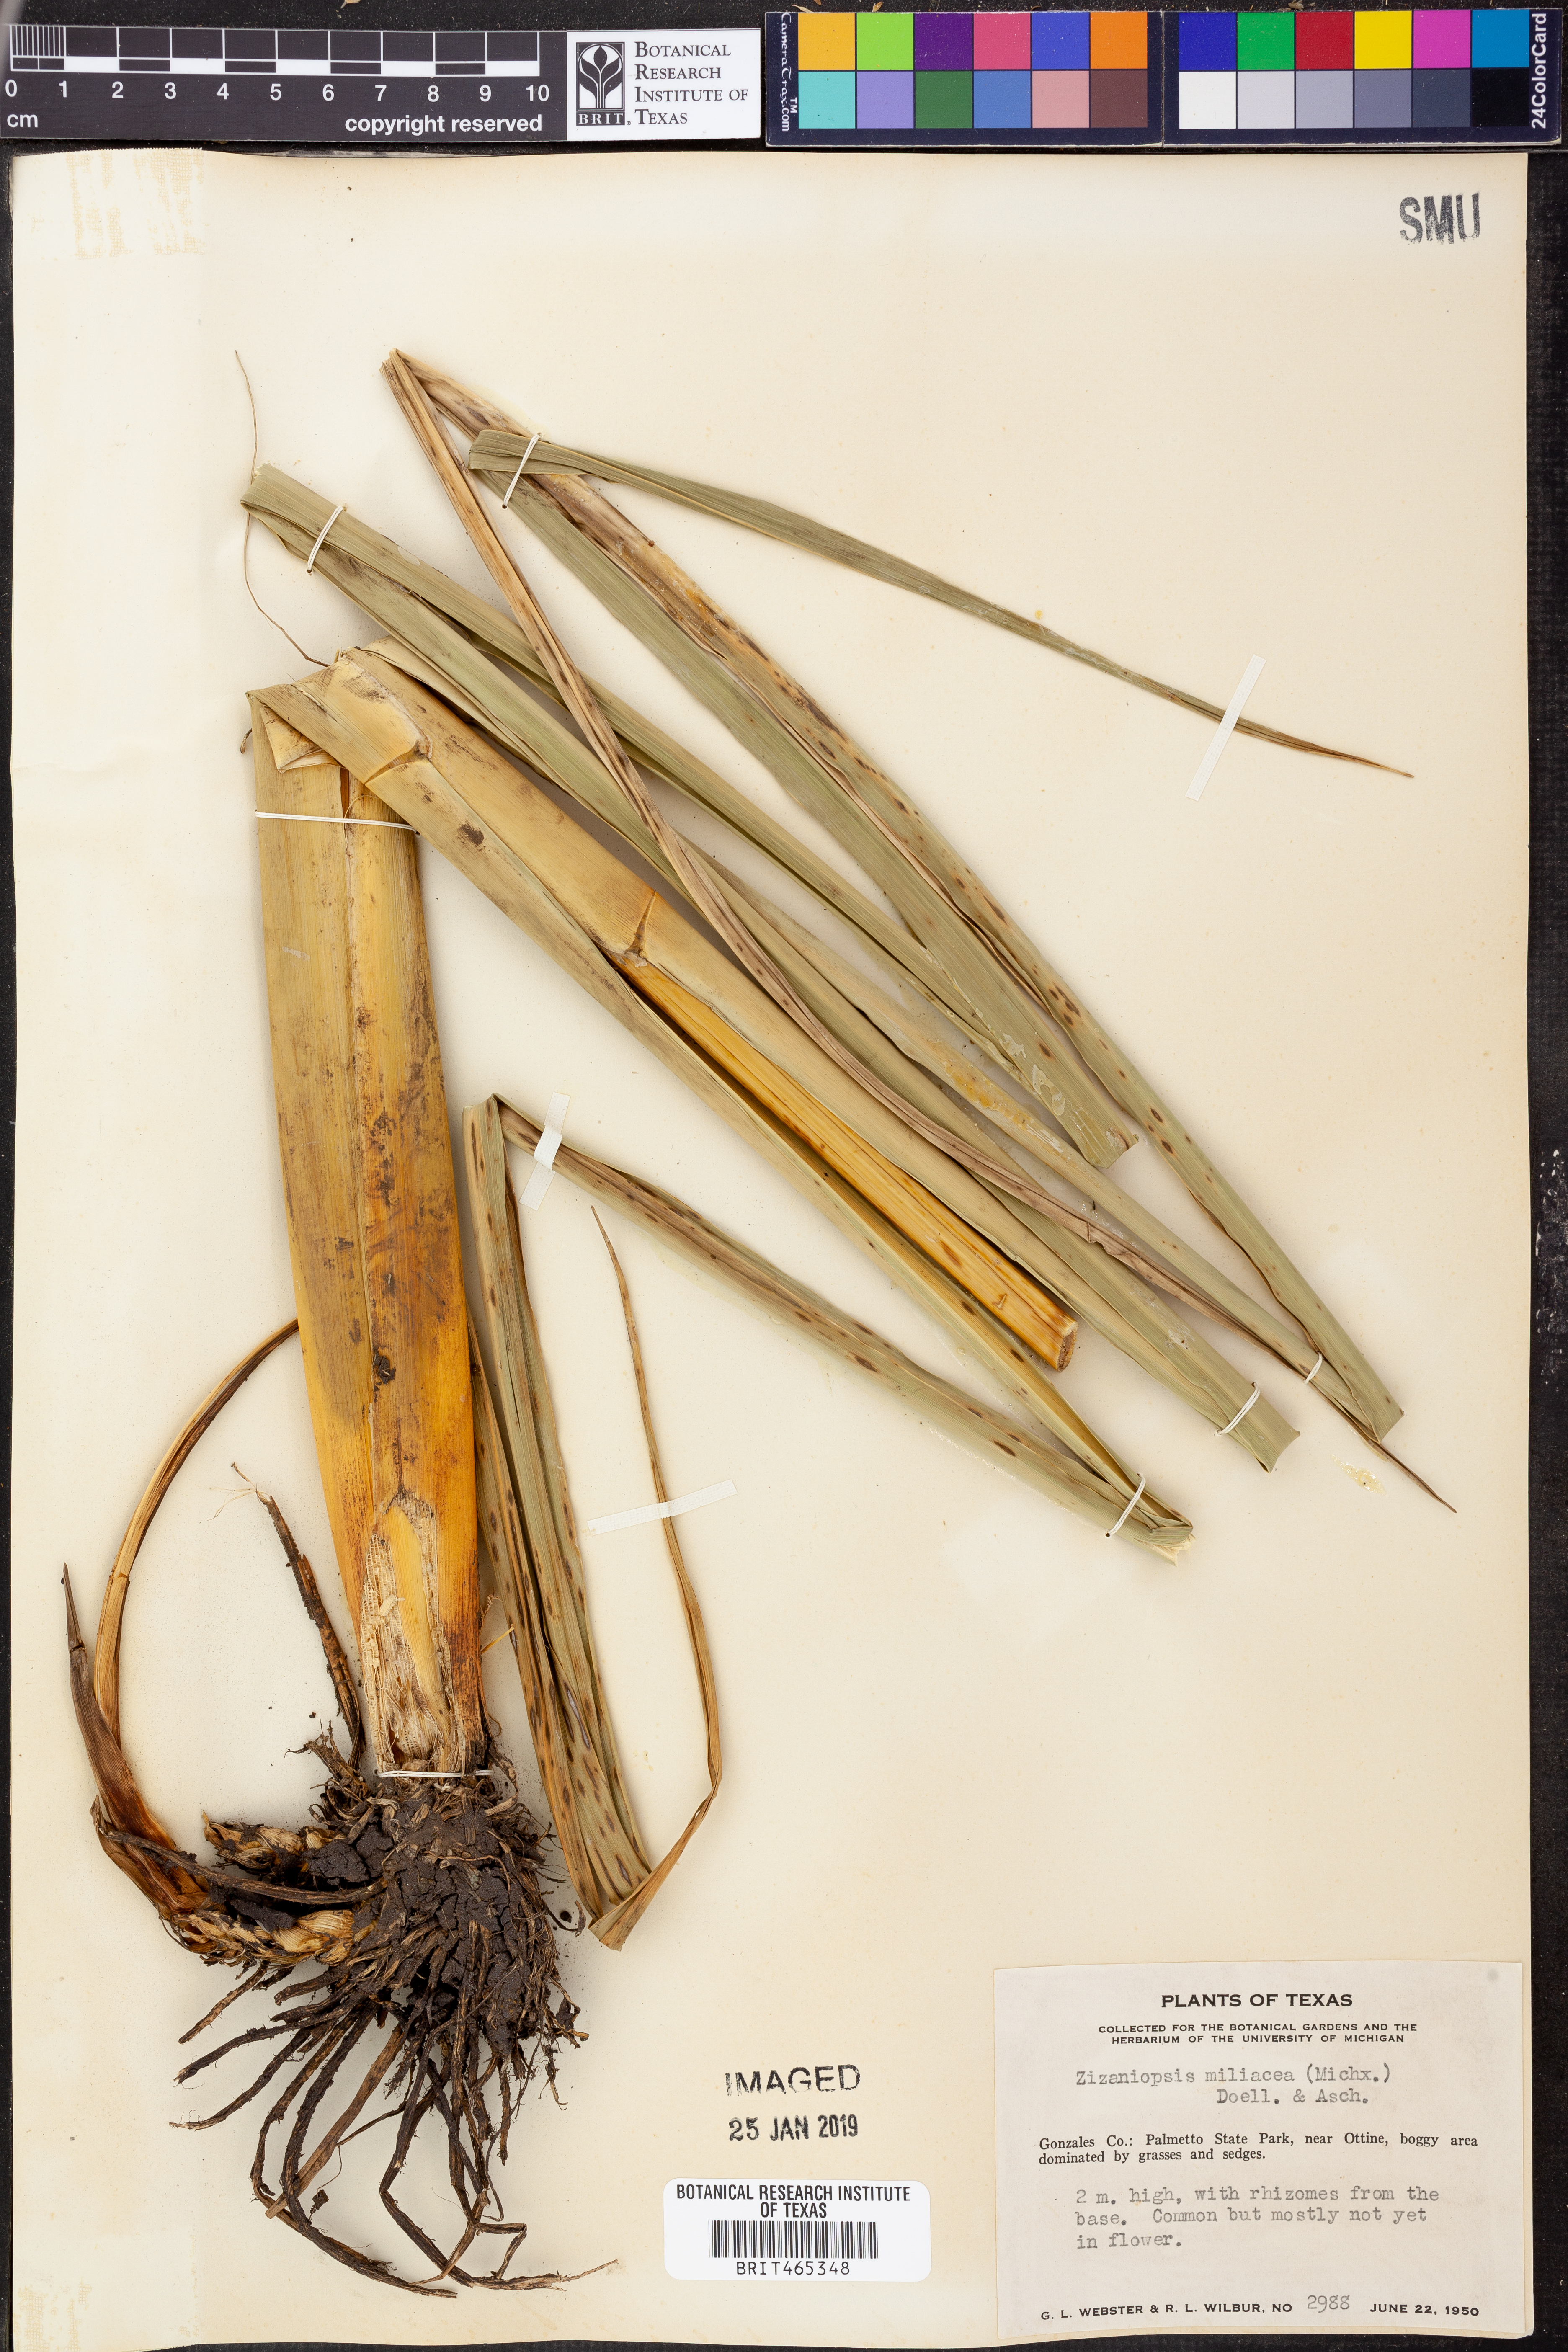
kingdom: Plantae
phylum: Tracheophyta
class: Liliopsida
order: Poales
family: Poaceae
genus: Zizaniopsis
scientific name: Zizaniopsis miliacea
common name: Giant-cutgrass
